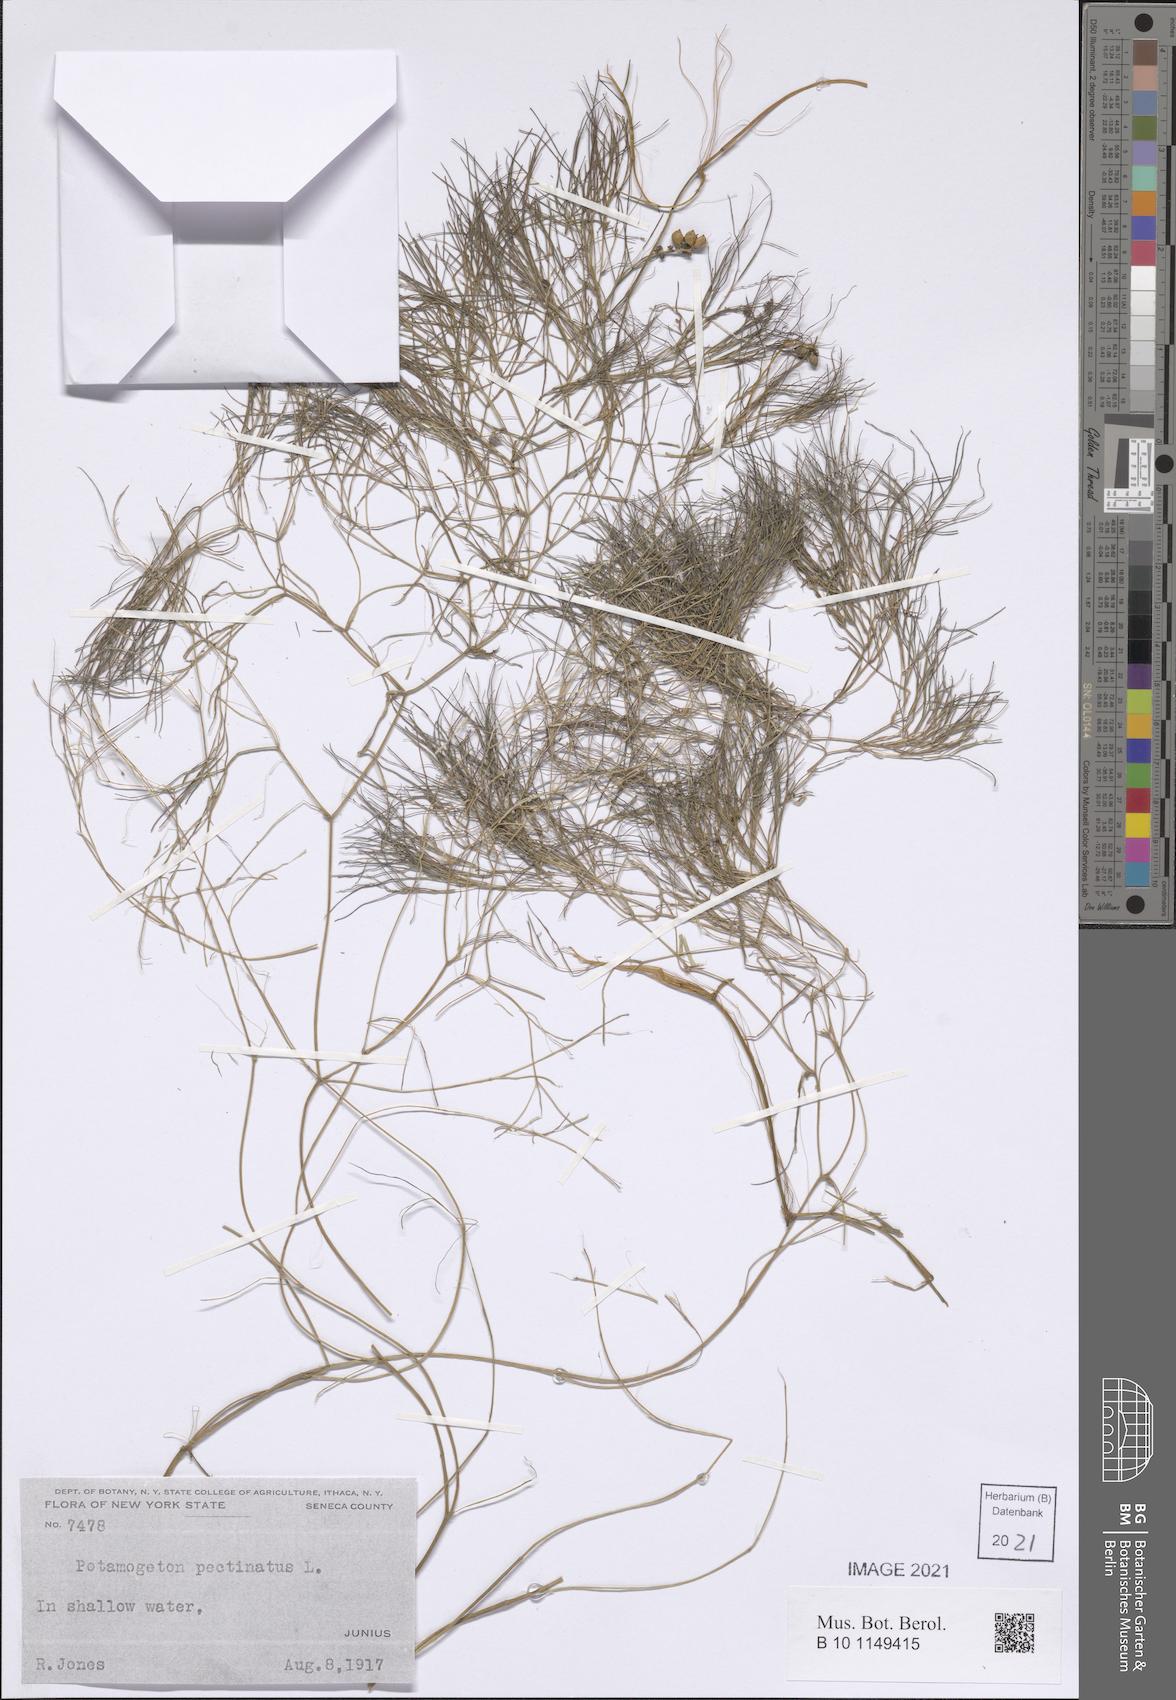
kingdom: Plantae
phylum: Tracheophyta
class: Liliopsida
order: Alismatales
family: Potamogetonaceae
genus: Stuckenia
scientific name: Stuckenia pectinata
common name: Sago pondweed
